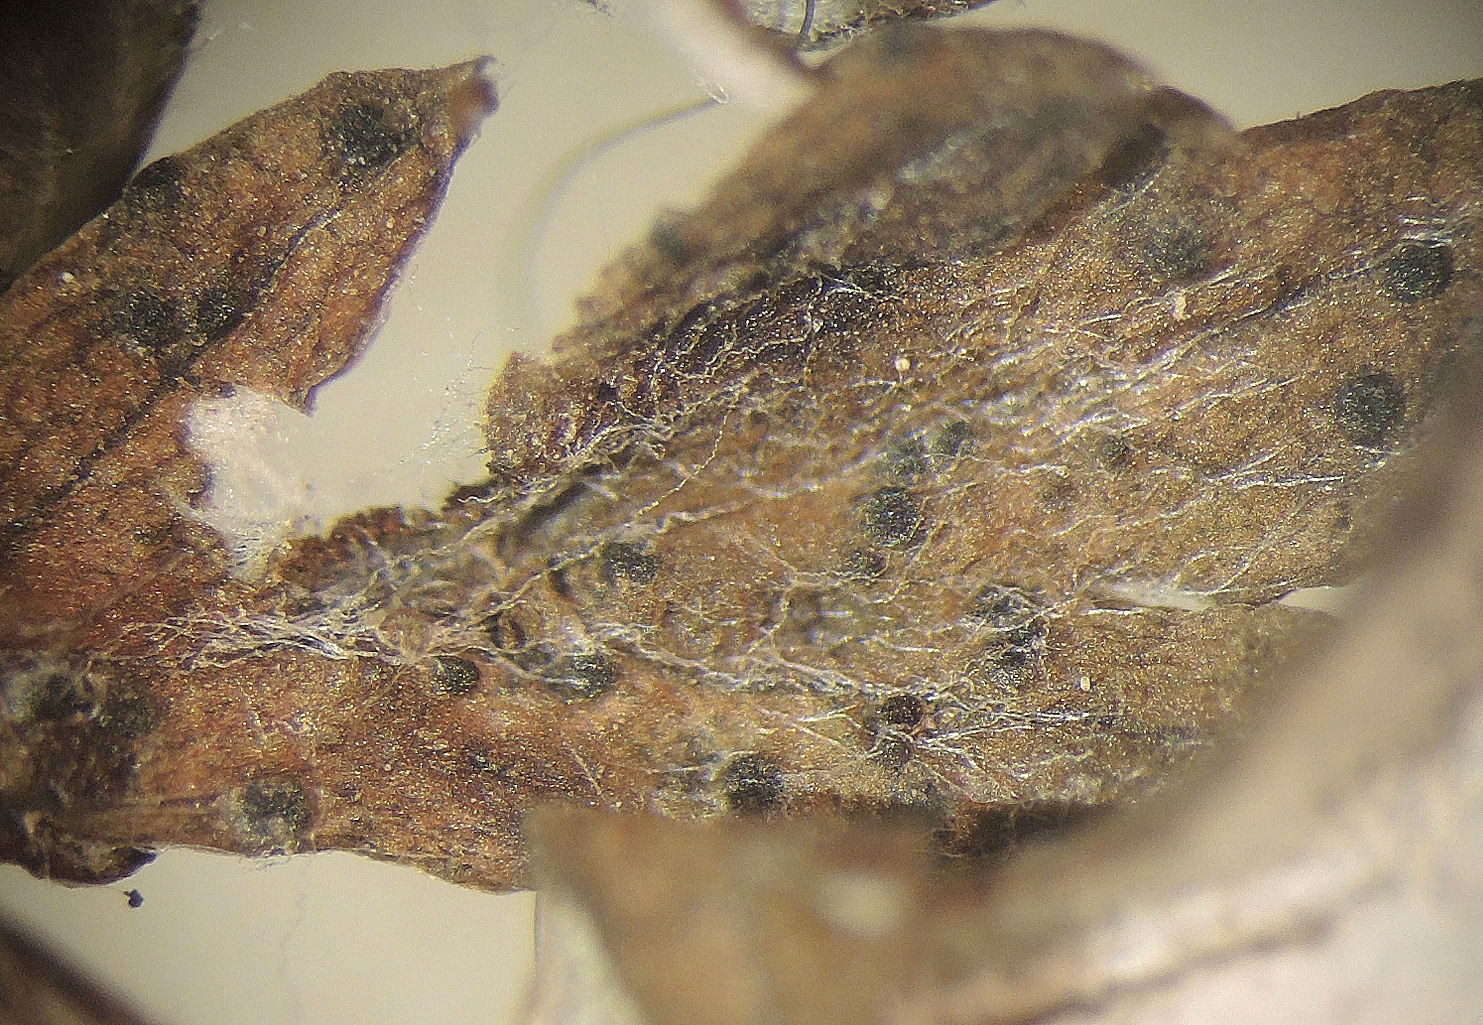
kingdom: Fungi
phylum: Basidiomycota
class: Pucciniomycetes
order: Pucciniales
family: Pucciniaceae
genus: Puccinia
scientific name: Puccinia tanaceti
